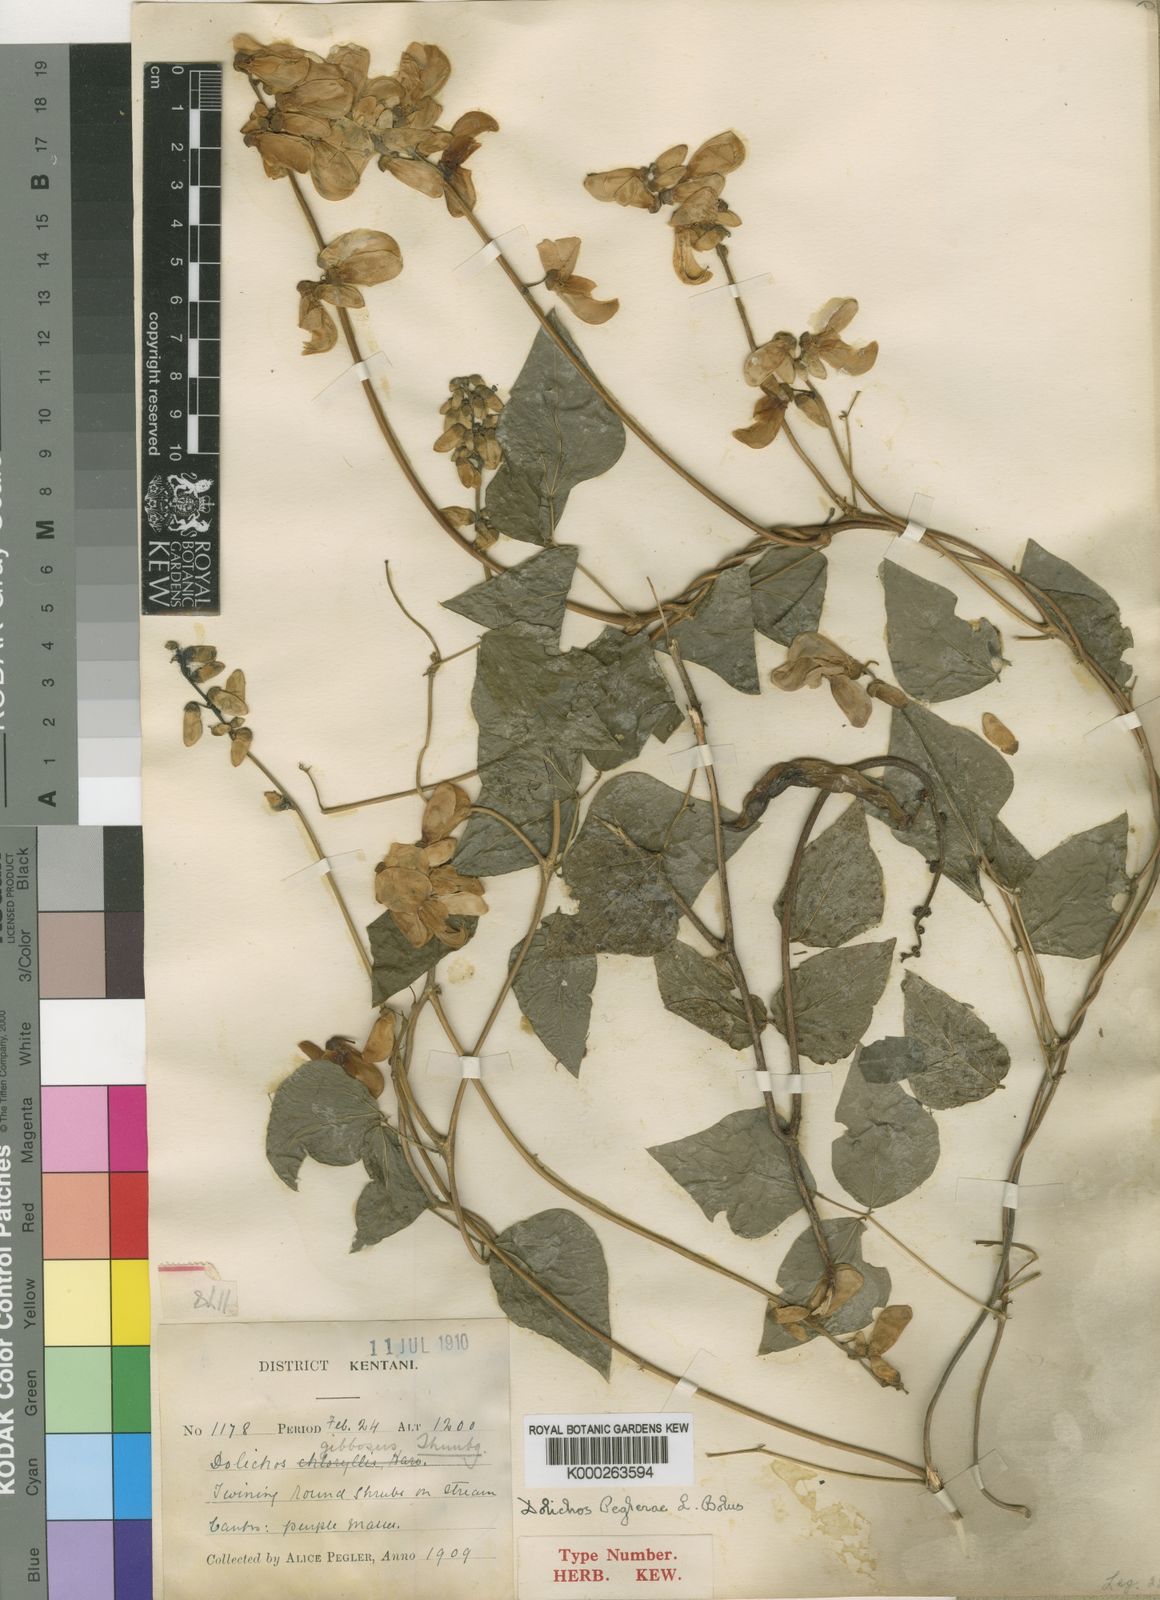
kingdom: Plantae
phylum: Tracheophyta
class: Magnoliopsida
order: Fabales
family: Fabaceae
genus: Dolichos
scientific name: Dolichos peglerae
